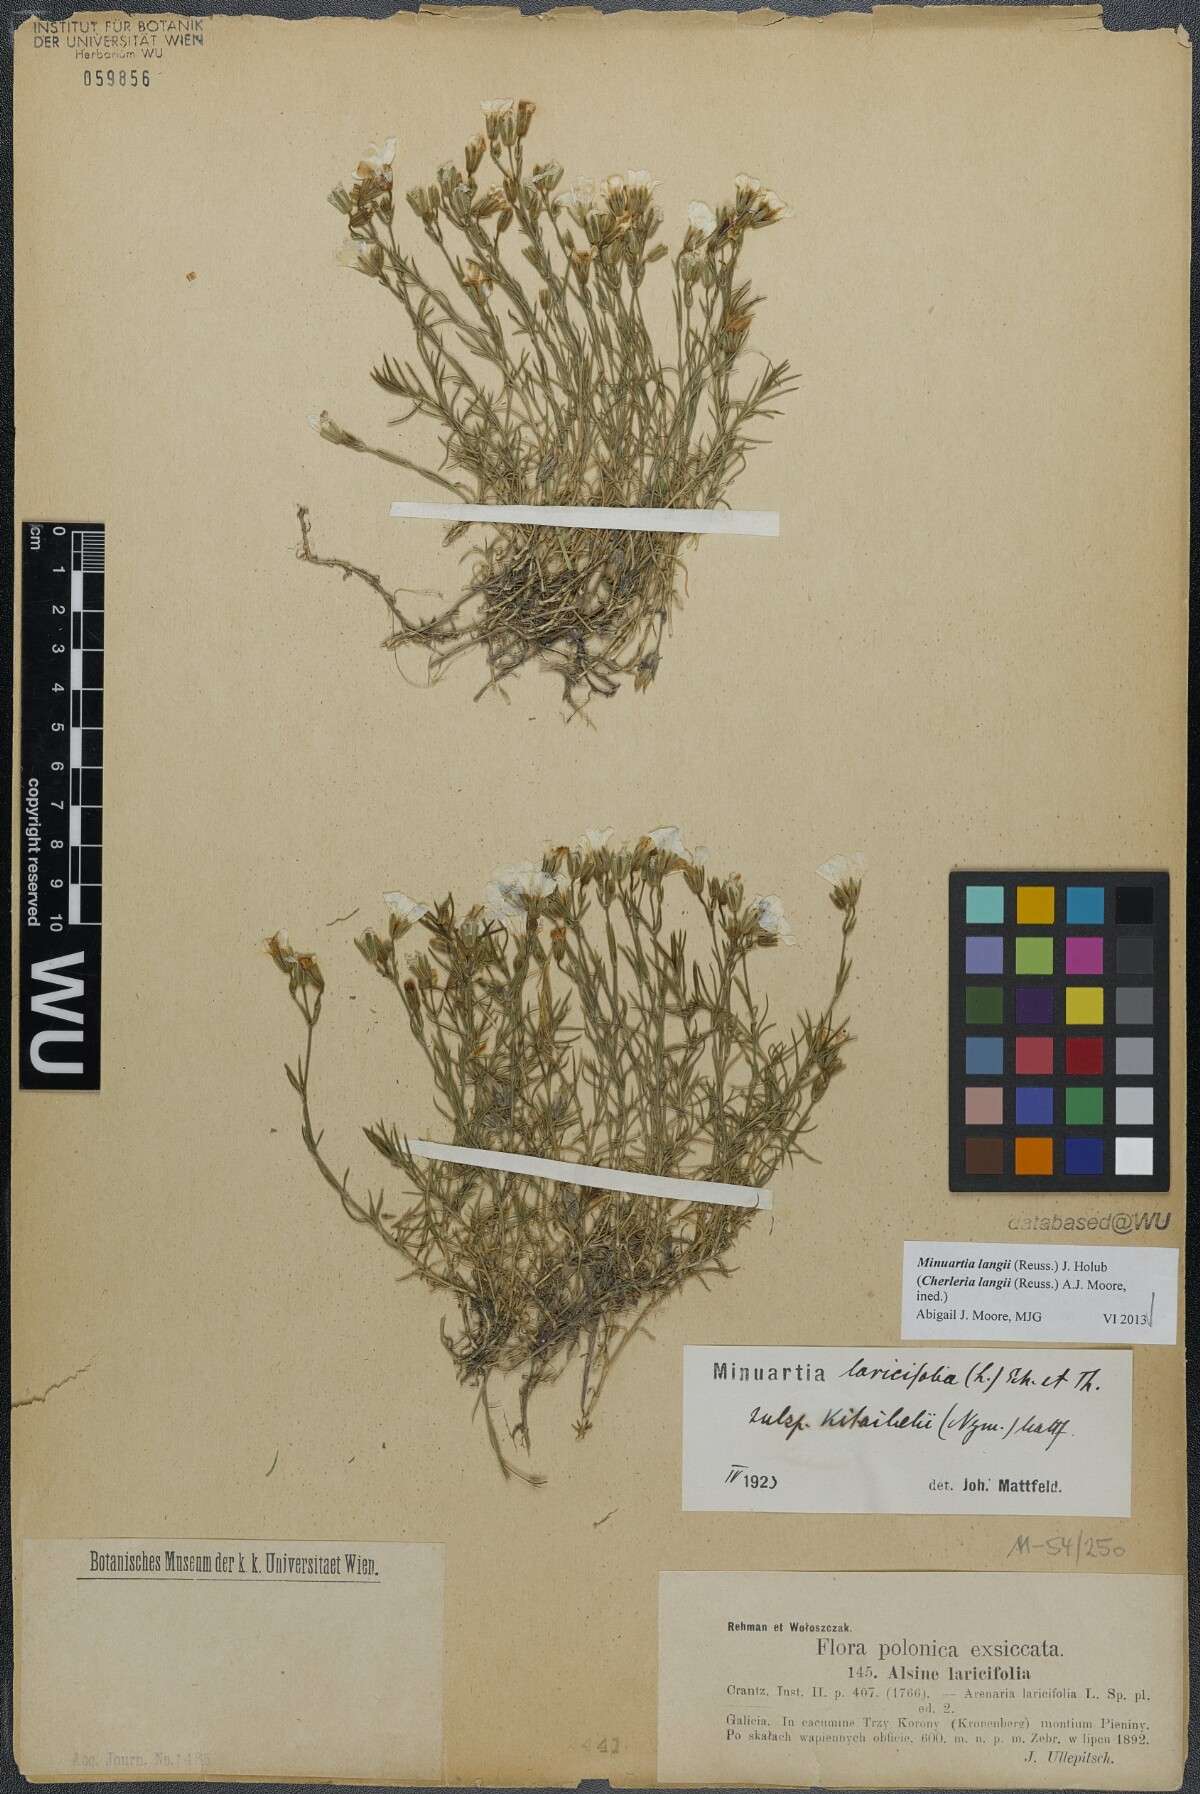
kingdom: Plantae
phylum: Tracheophyta
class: Magnoliopsida
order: Caryophyllales
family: Caryophyllaceae
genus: Cherleria
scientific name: Cherleria langii
